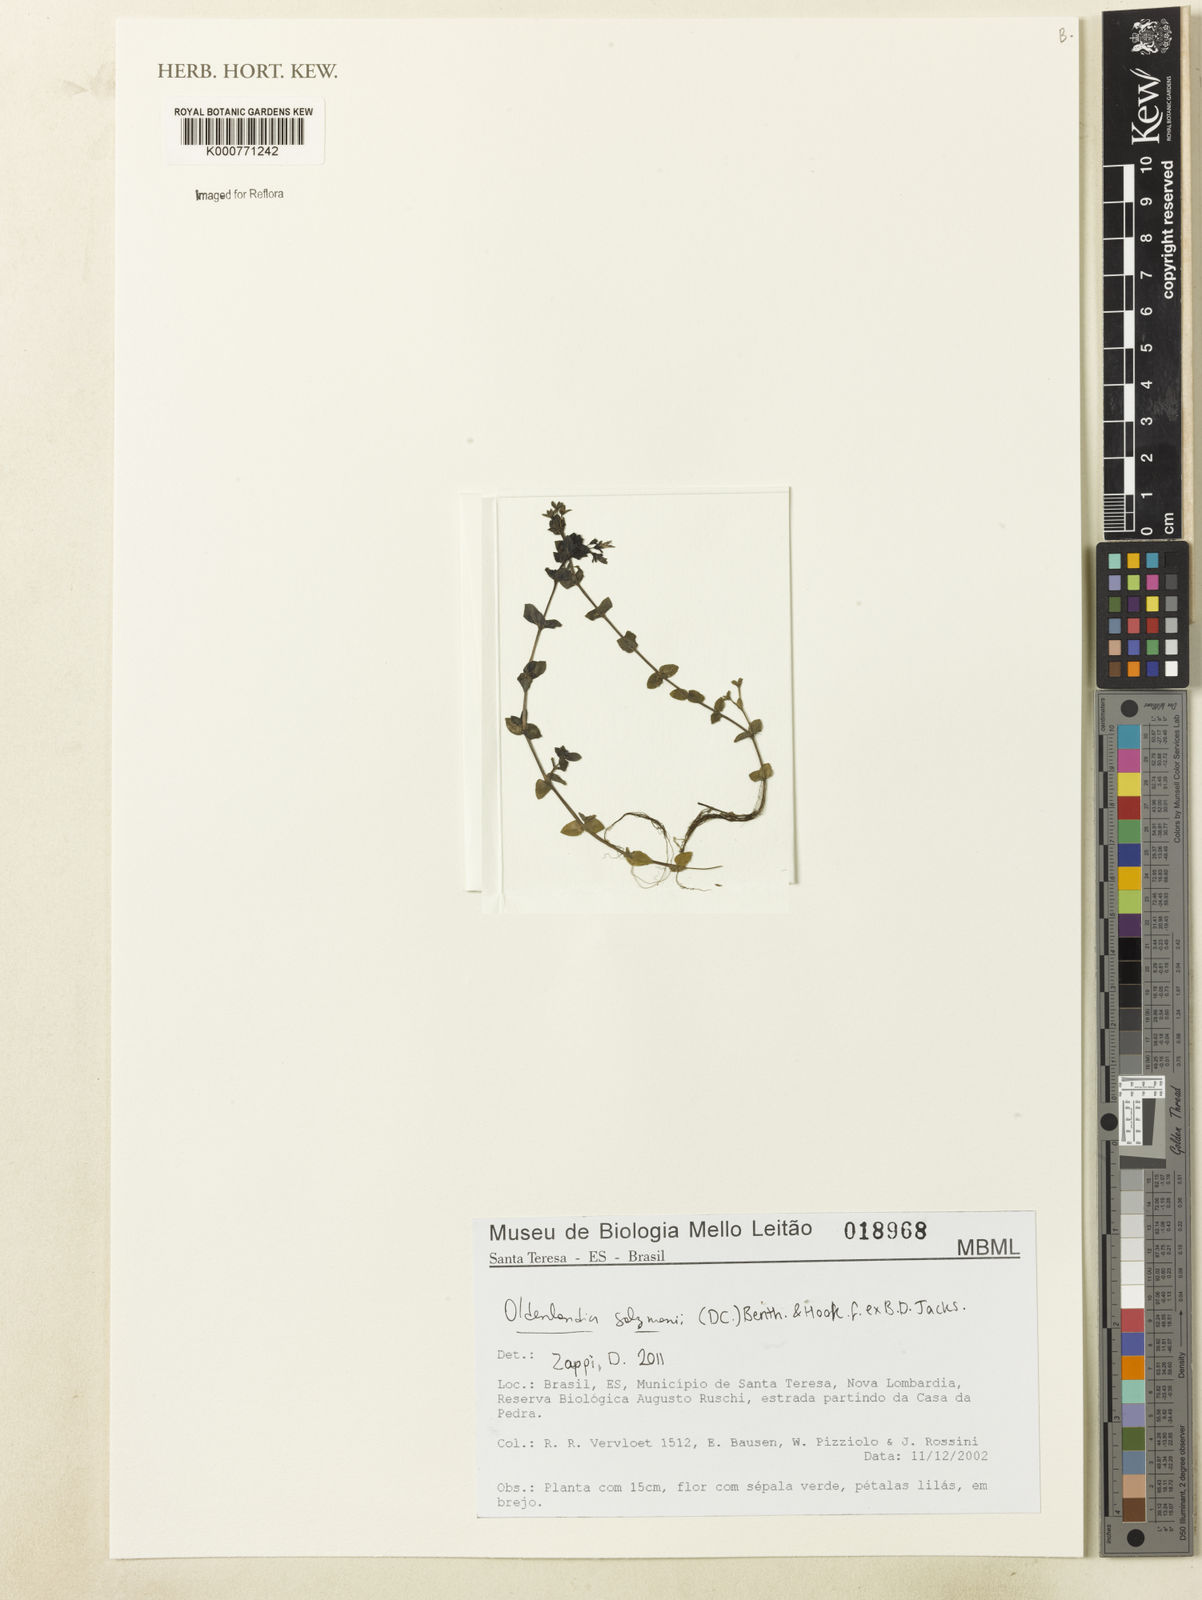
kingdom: Plantae
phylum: Tracheophyta
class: Magnoliopsida
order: Gentianales
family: Rubiaceae
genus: Oldenlandia
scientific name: Oldenlandia salzmannii
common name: Salzmann's mille graines
